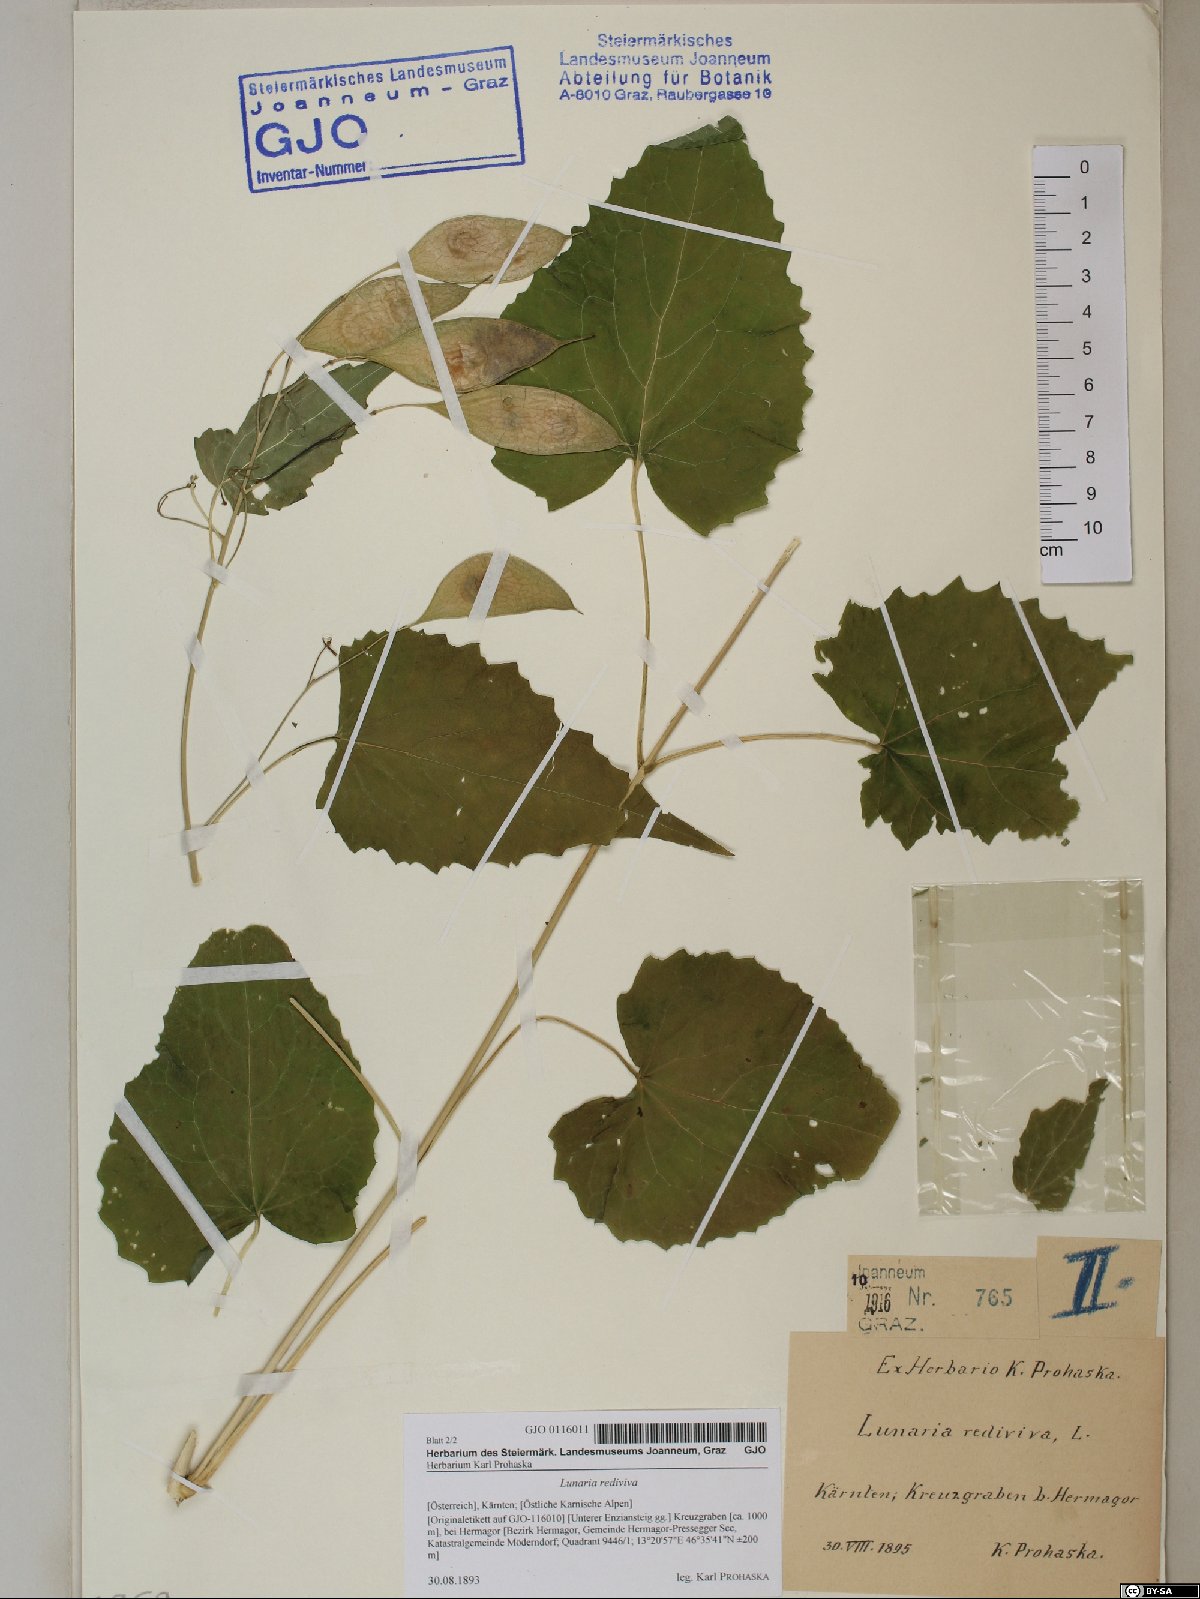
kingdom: Plantae
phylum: Tracheophyta
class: Magnoliopsida
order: Brassicales
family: Brassicaceae
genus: Lunaria
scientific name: Lunaria rediviva
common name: Perennial honesty
